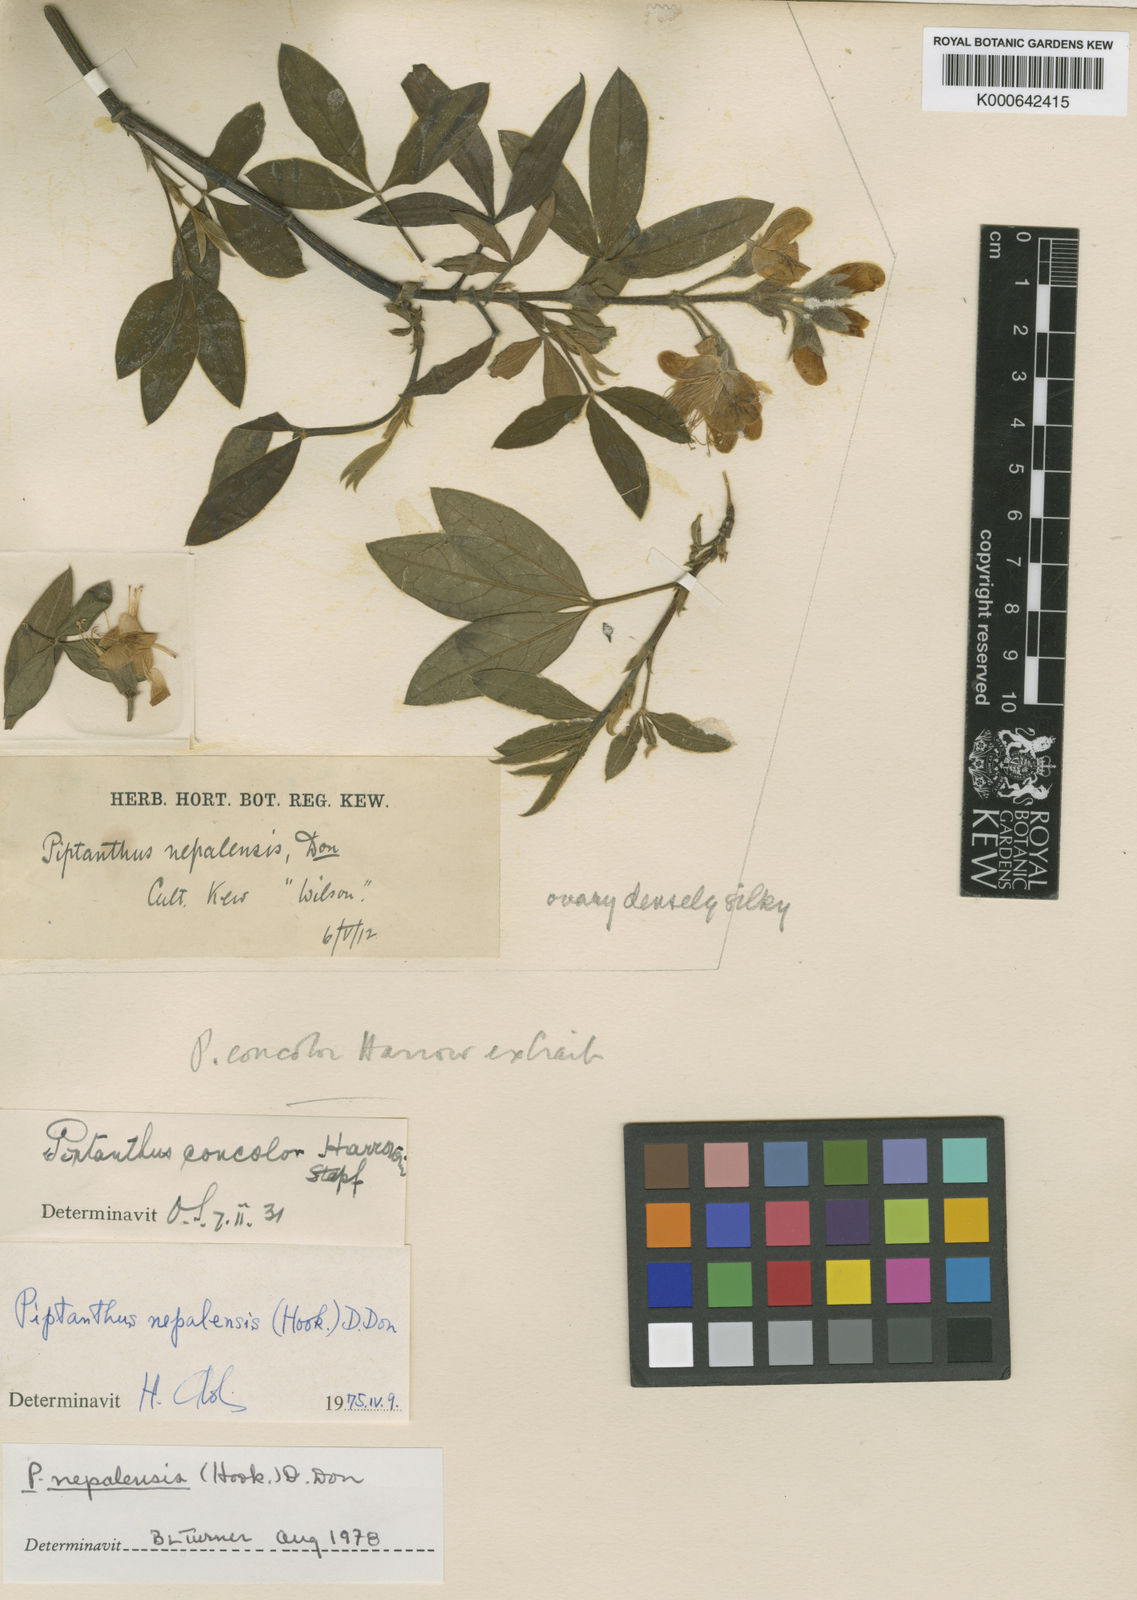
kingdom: Plantae
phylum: Tracheophyta
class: Magnoliopsida
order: Fabales
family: Fabaceae
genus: Piptanthus
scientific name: Piptanthus
